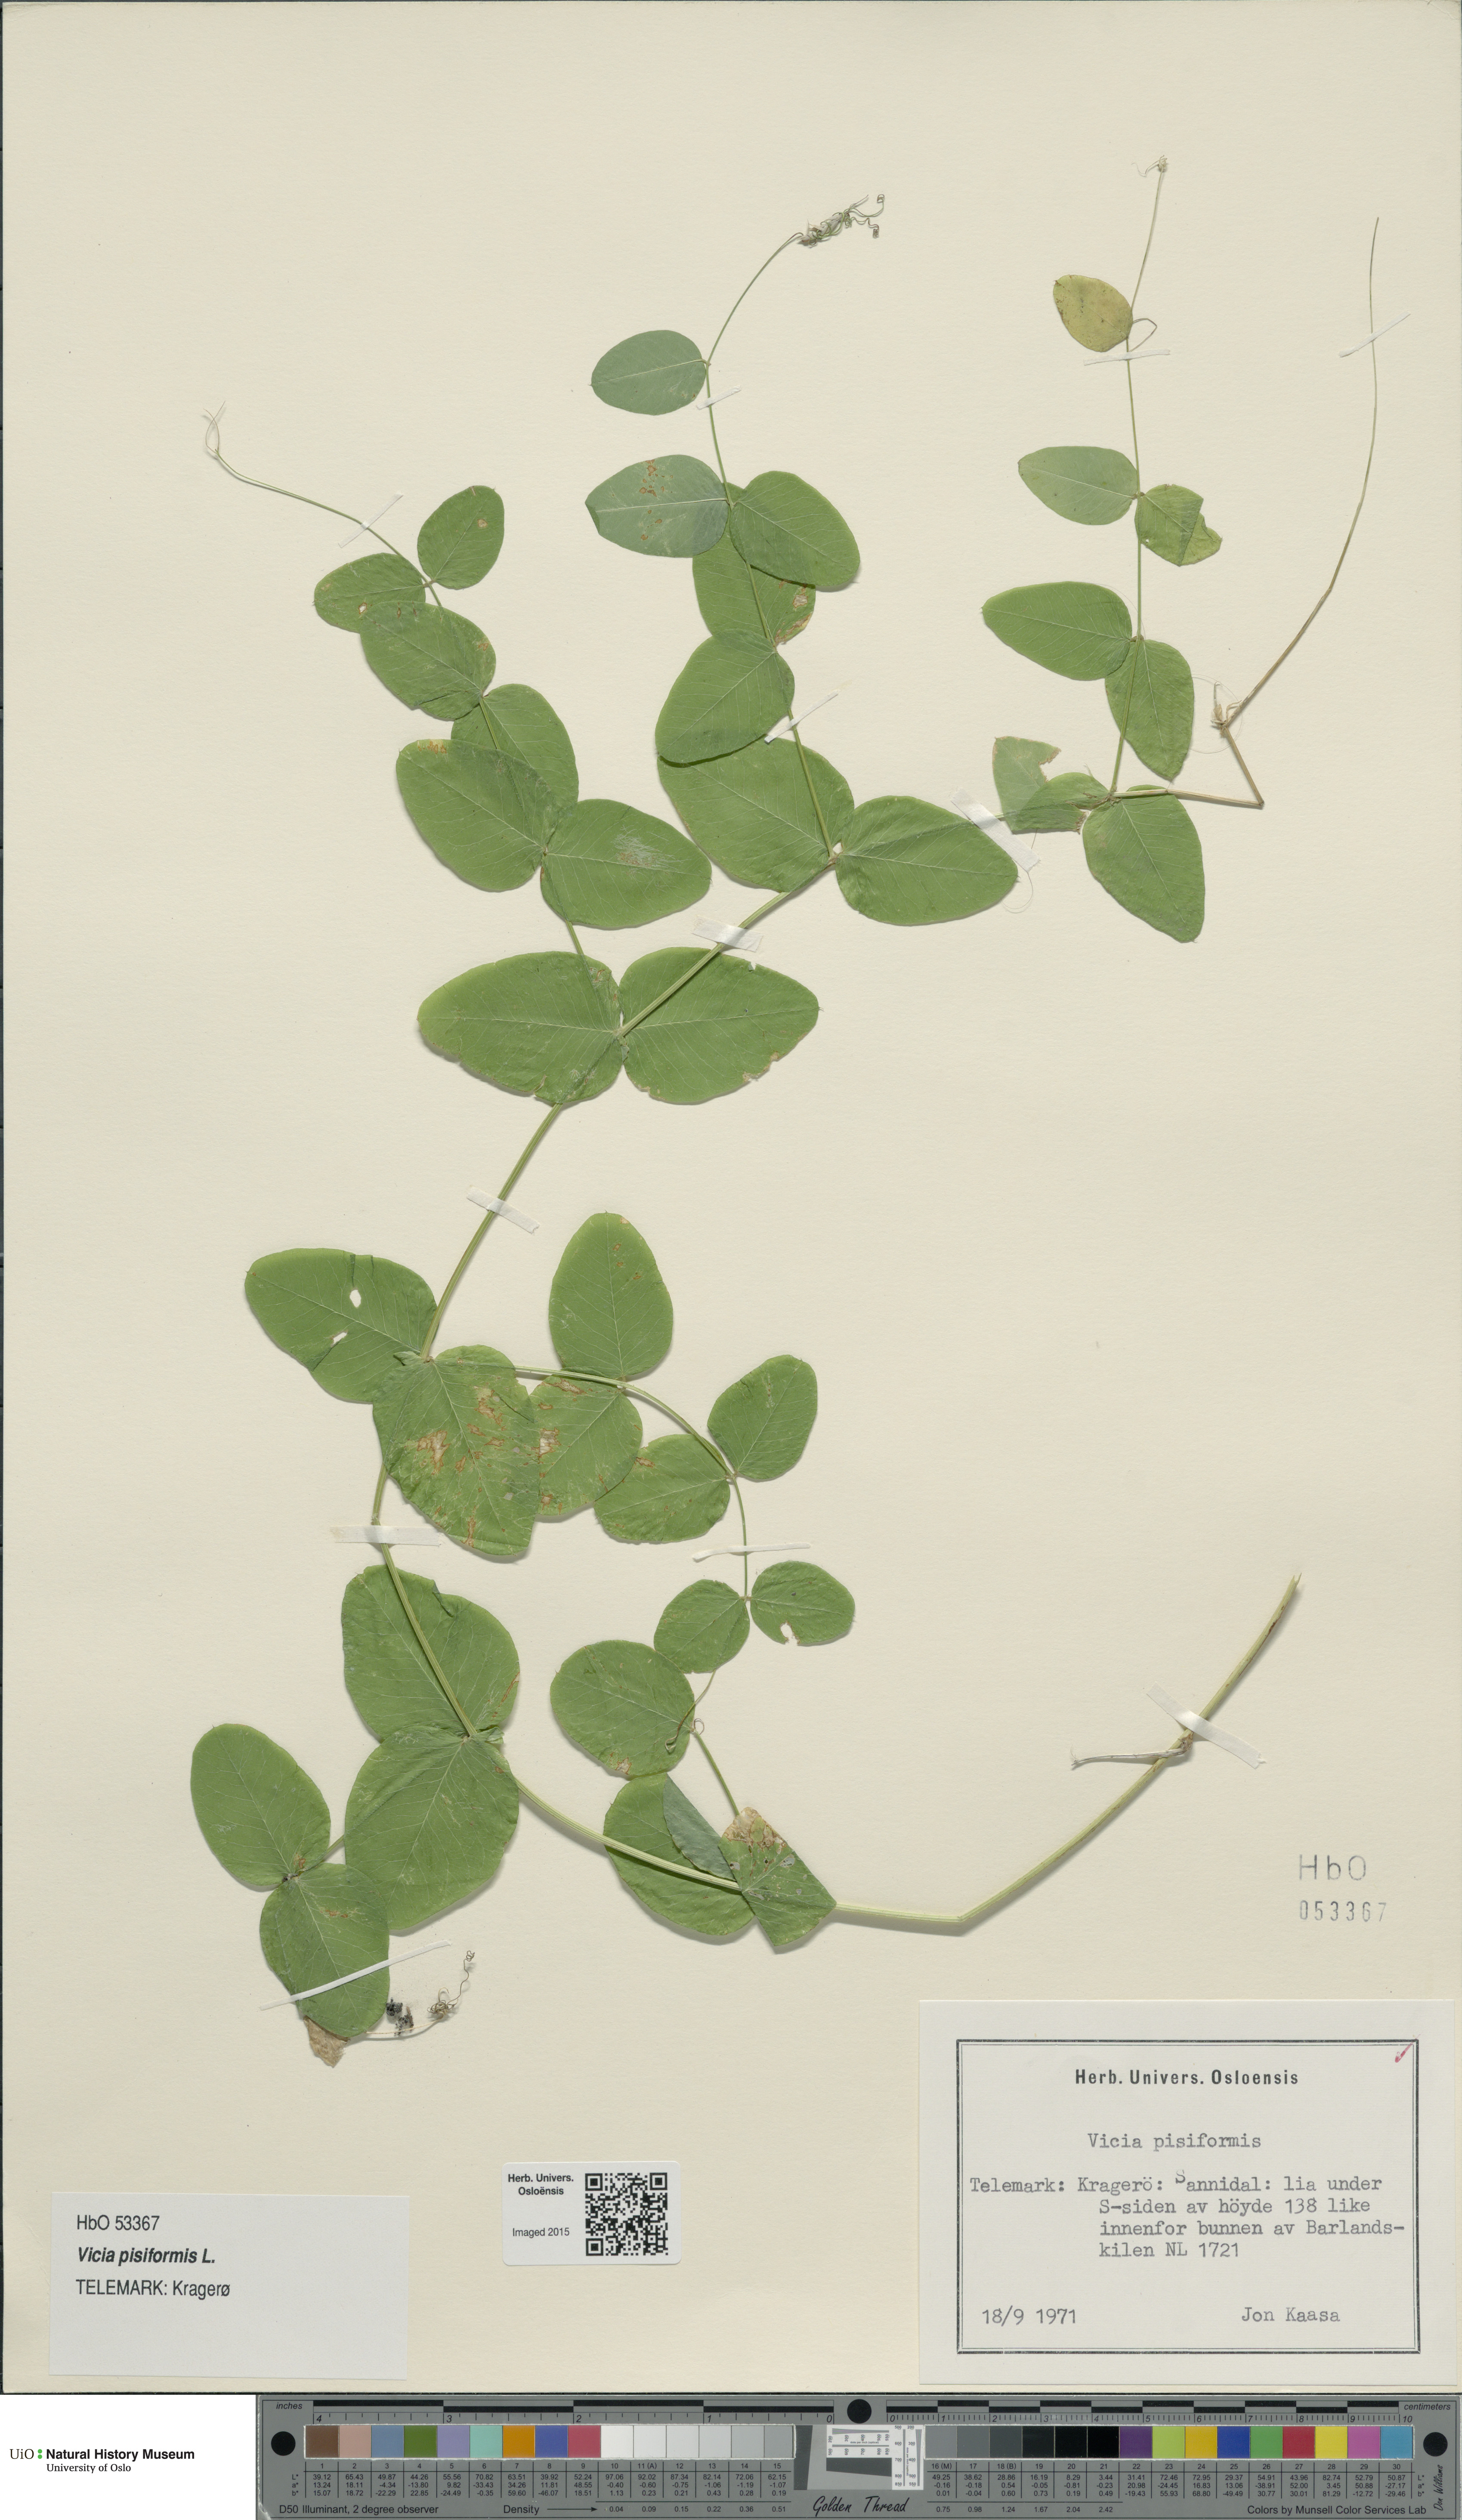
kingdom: Plantae
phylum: Tracheophyta
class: Magnoliopsida
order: Fabales
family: Fabaceae
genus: Vicia
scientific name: Vicia pisiformis
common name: Pale-flower vetch
